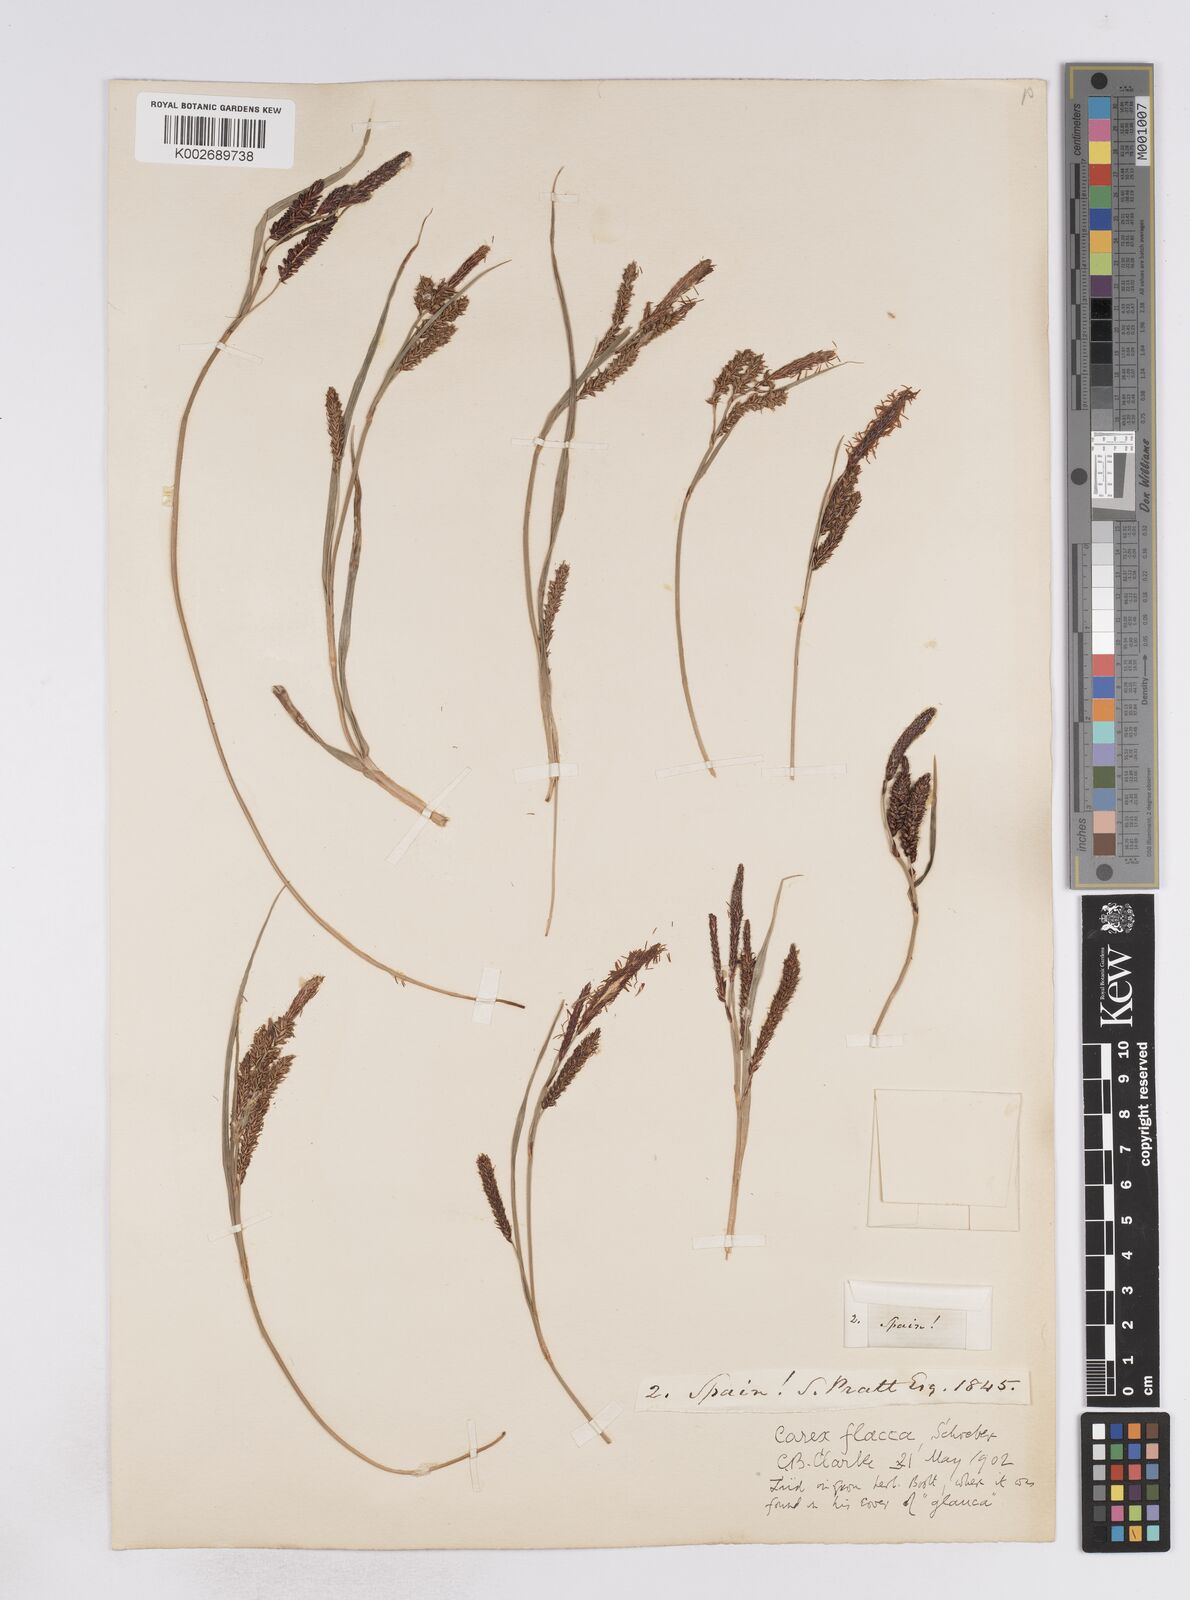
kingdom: Plantae
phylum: Tracheophyta
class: Liliopsida
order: Poales
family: Cyperaceae
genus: Carex
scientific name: Carex flacca
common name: Glaucous sedge
